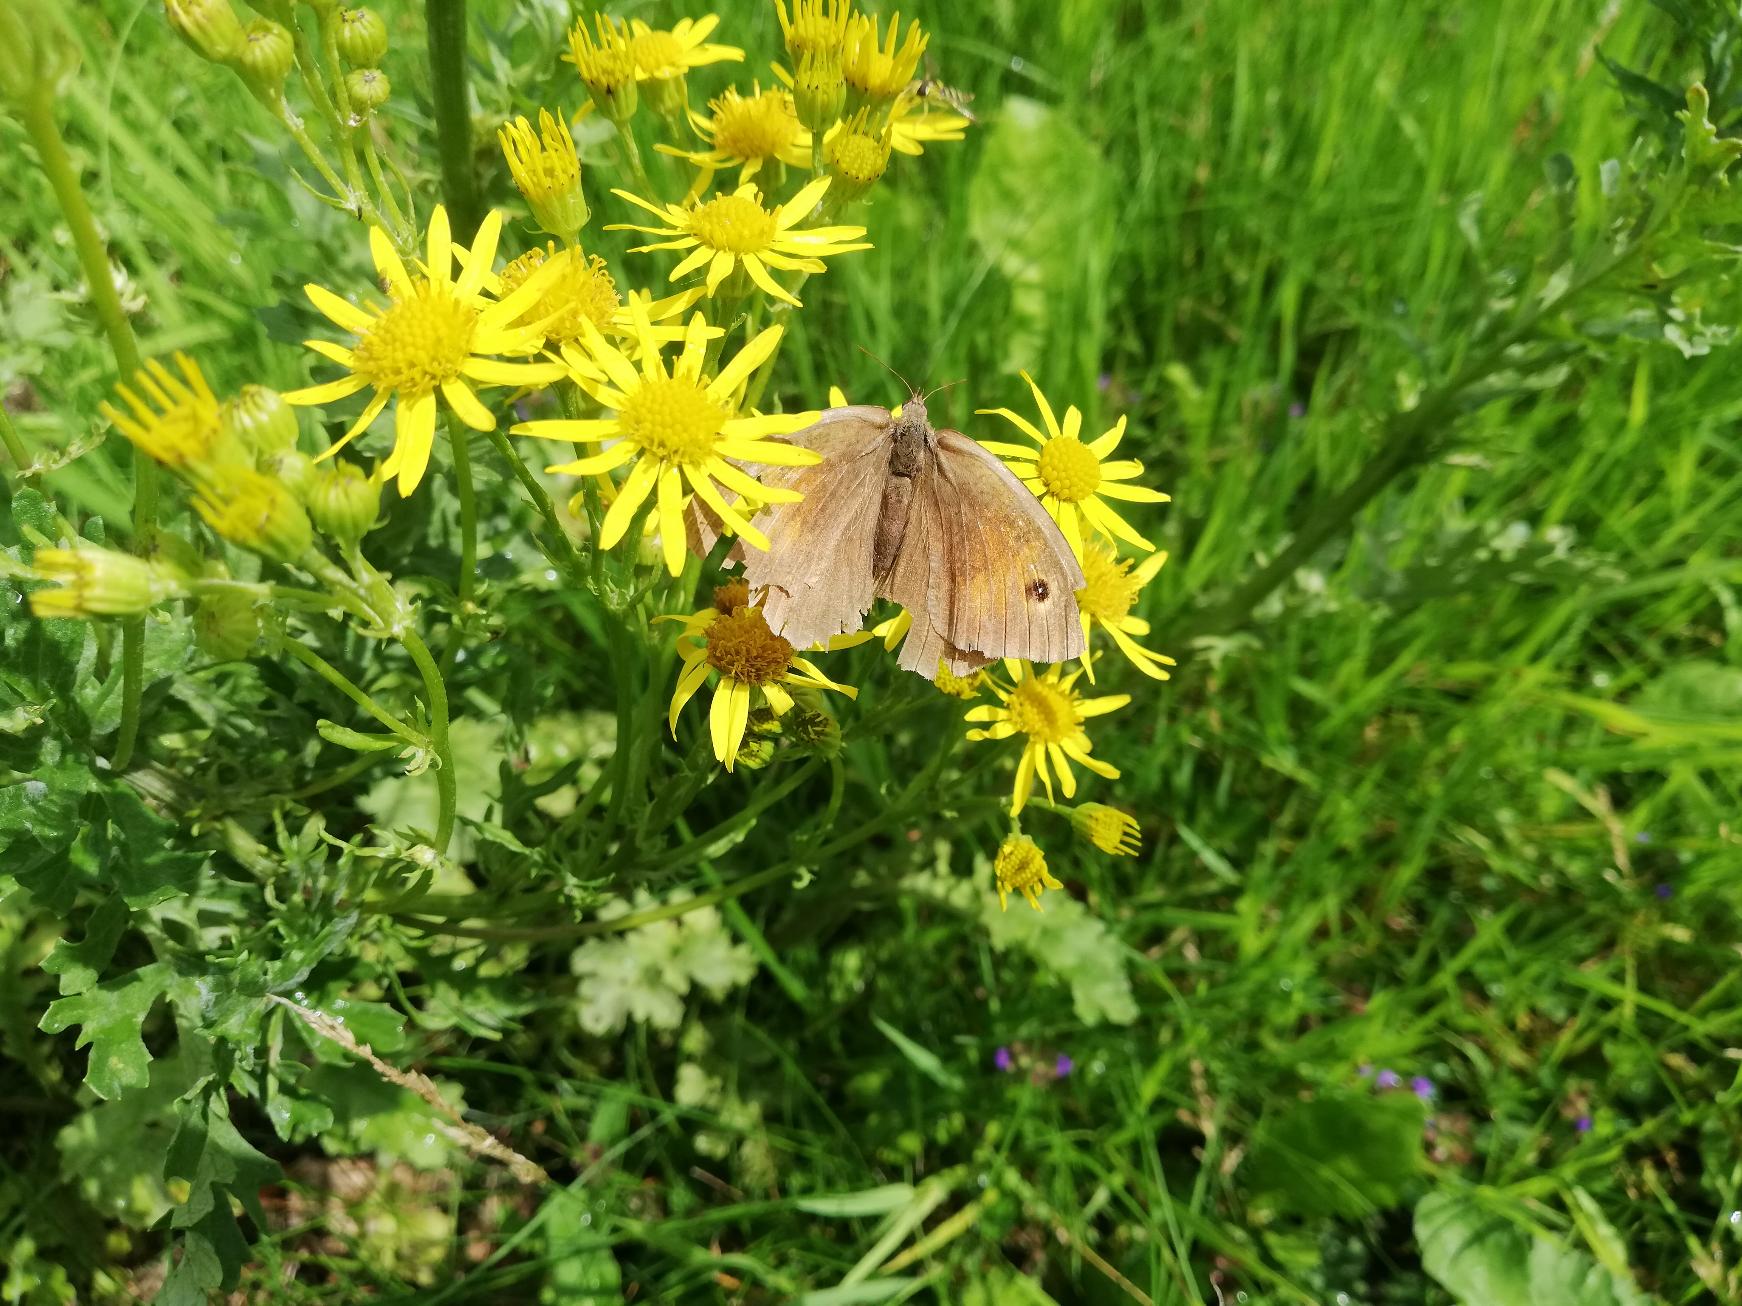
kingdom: Animalia
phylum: Arthropoda
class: Insecta
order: Lepidoptera
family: Nymphalidae
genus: Maniola
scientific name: Maniola jurtina
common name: Græsrandøje
